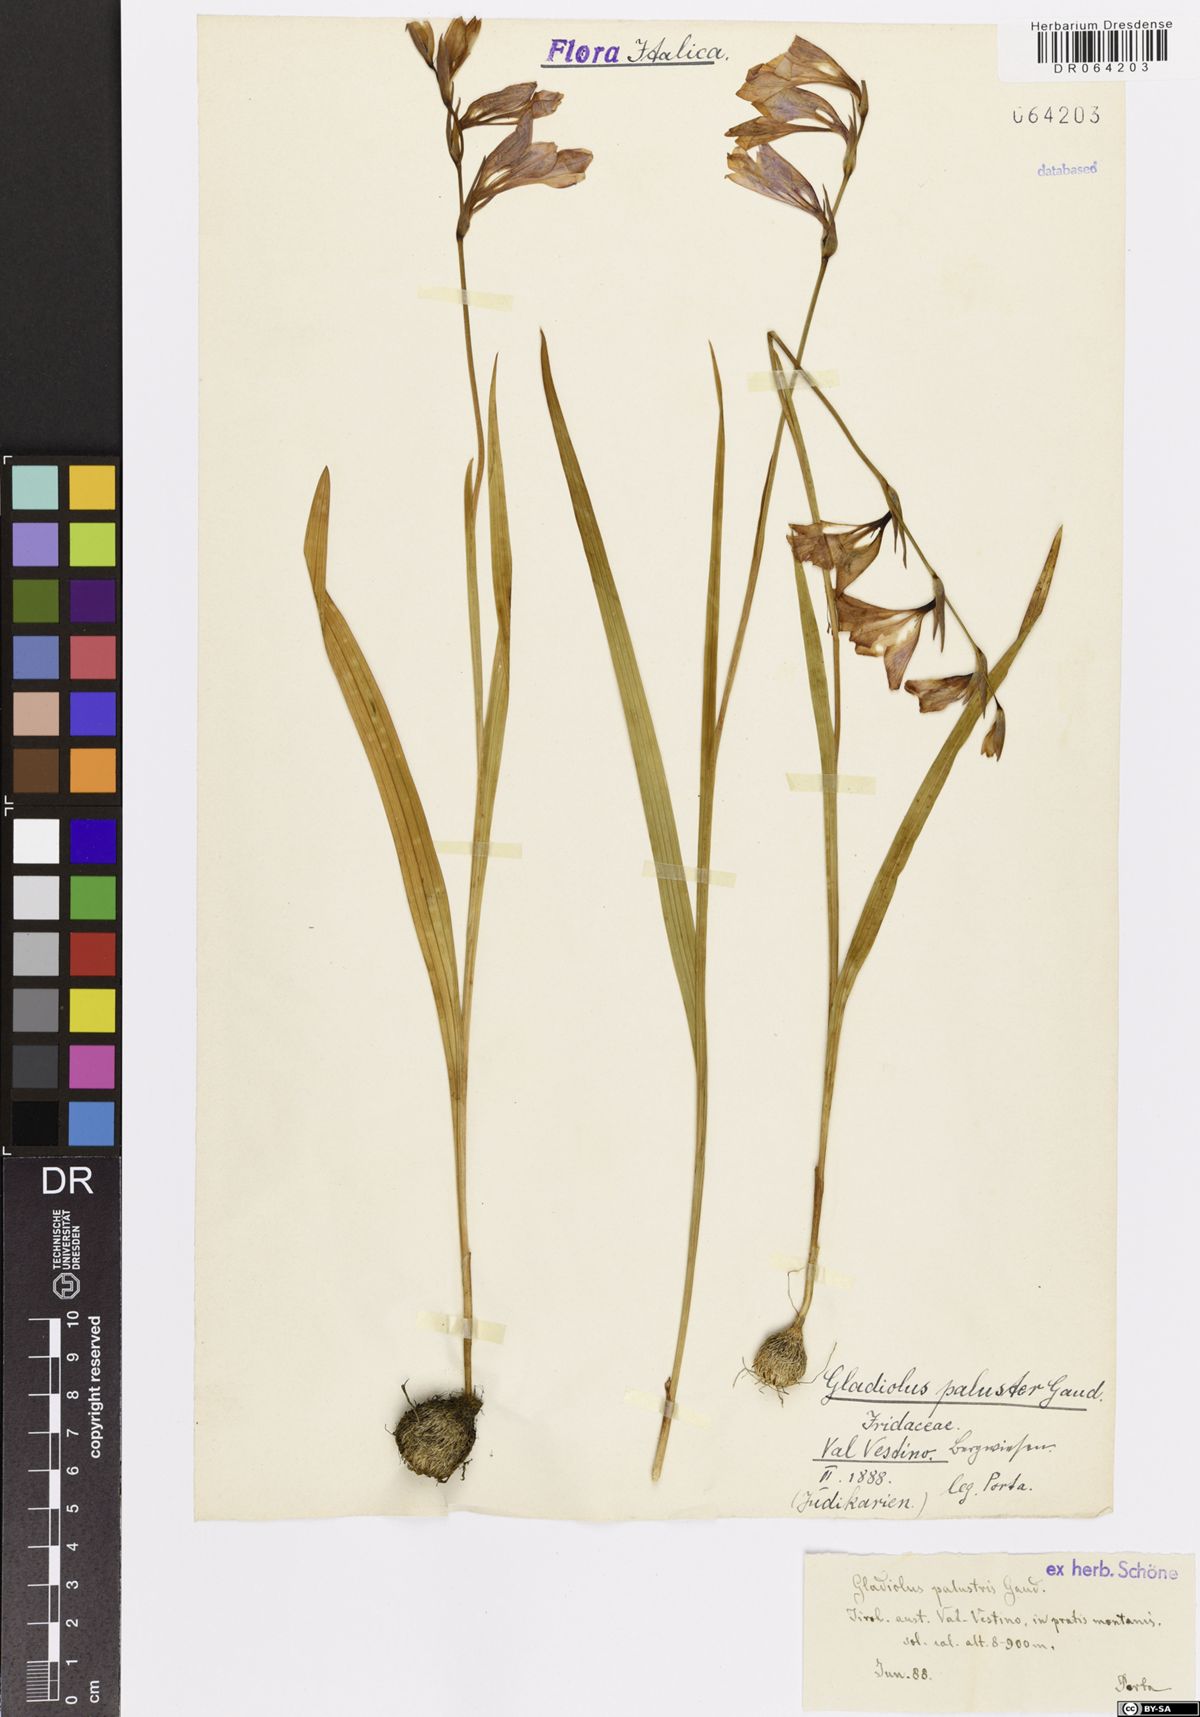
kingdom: Plantae
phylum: Tracheophyta
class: Liliopsida
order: Asparagales
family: Iridaceae
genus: Gladiolus
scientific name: Gladiolus palustris
